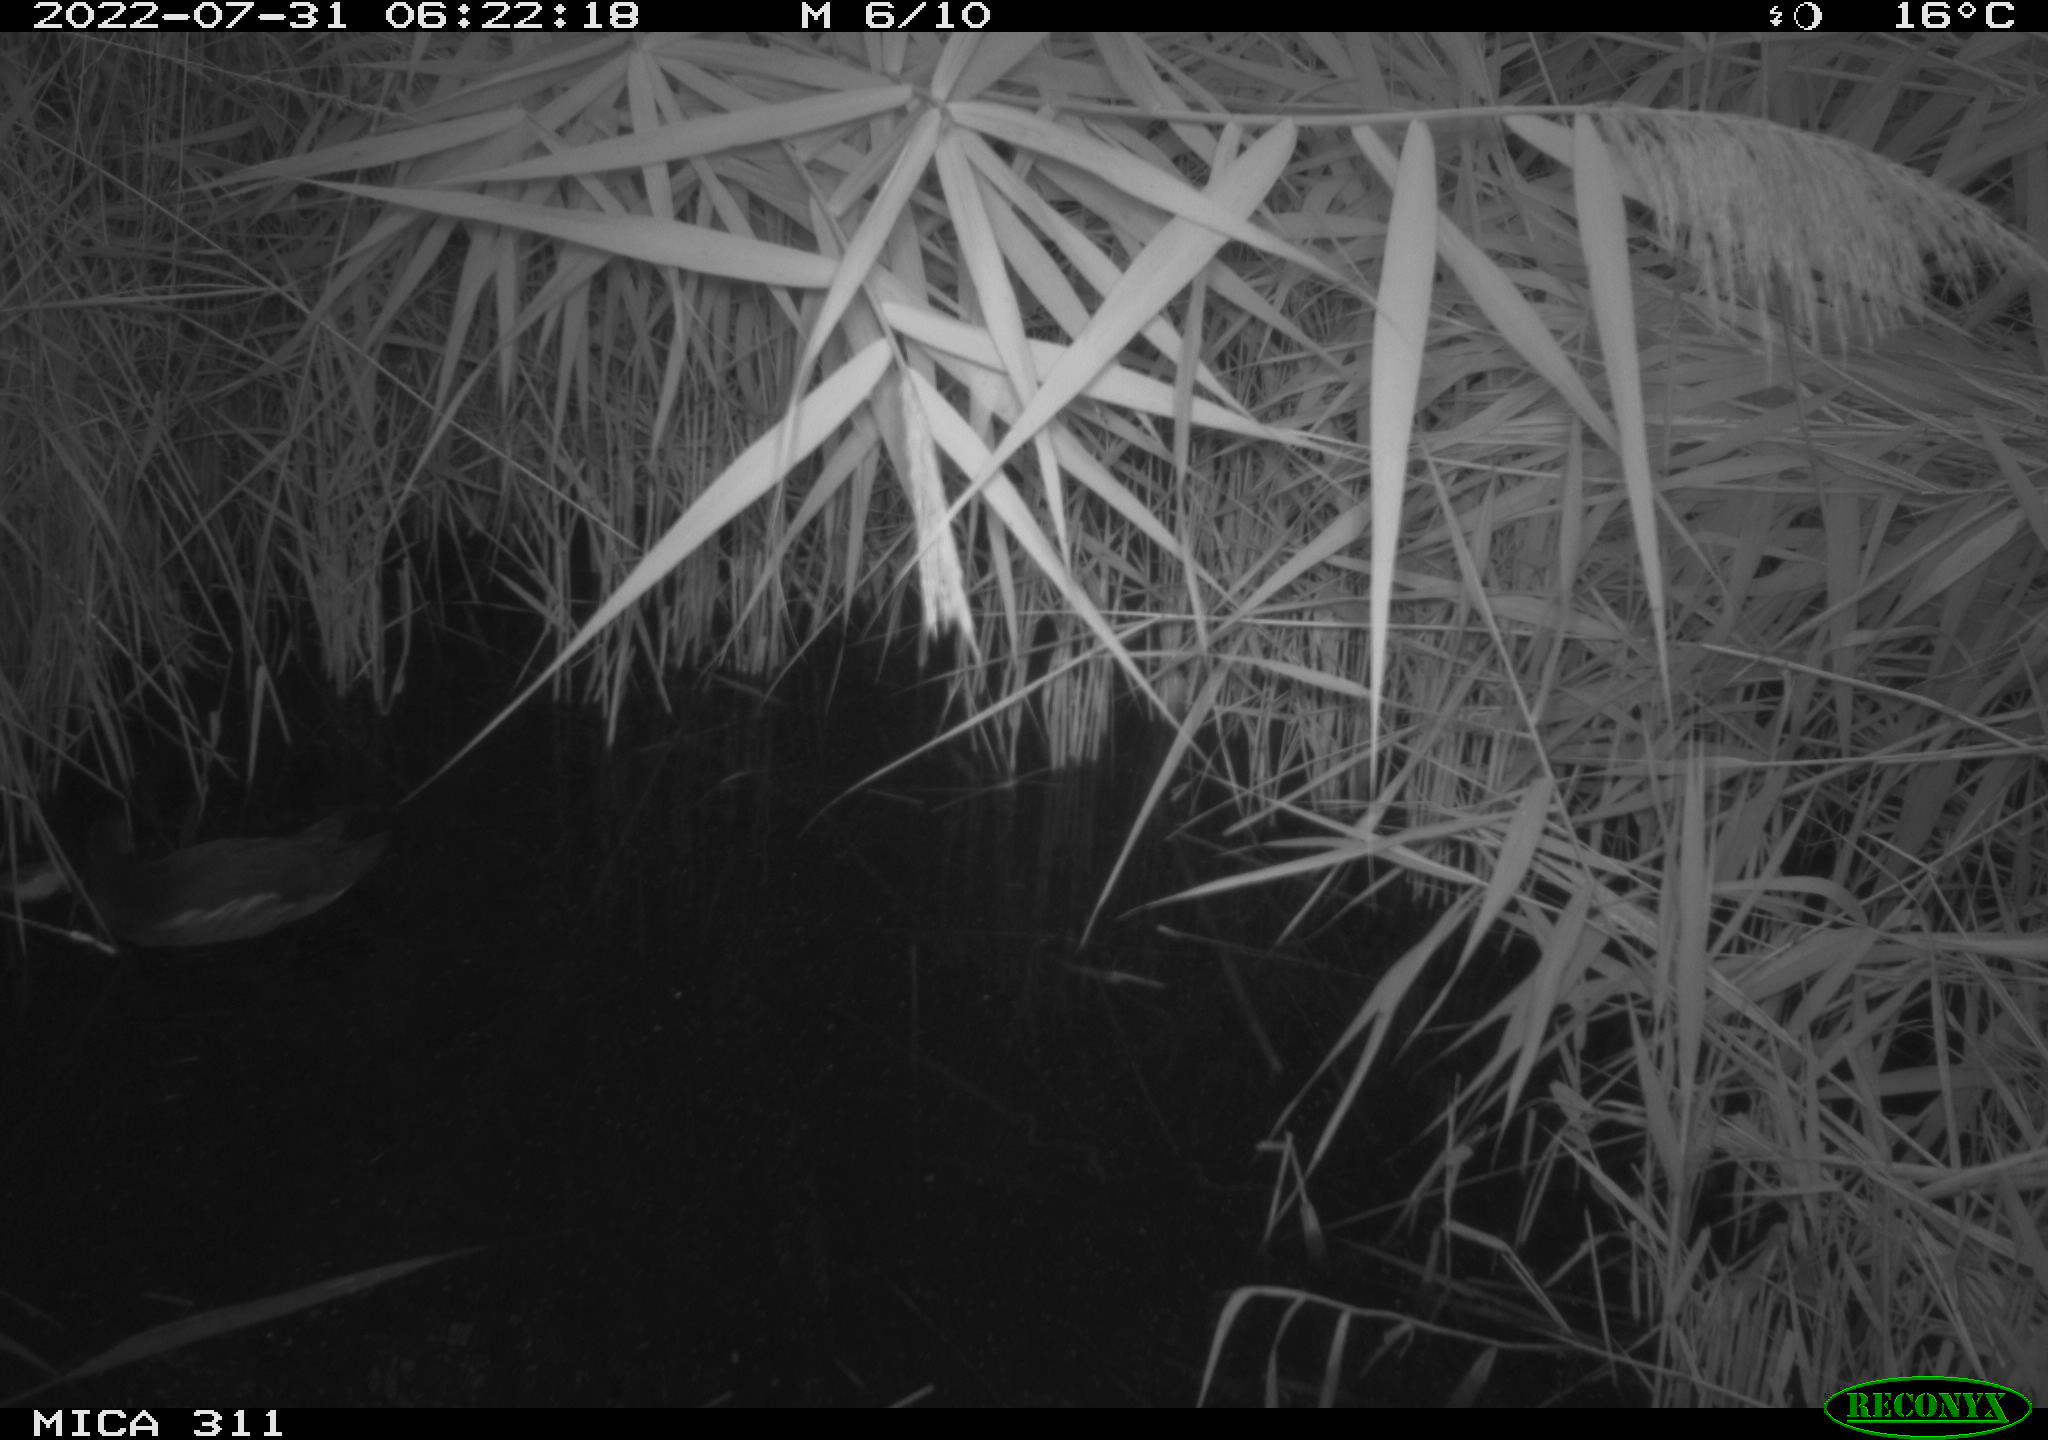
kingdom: Animalia
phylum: Chordata
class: Aves
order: Anseriformes
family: Anatidae
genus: Anas
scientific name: Anas platyrhynchos
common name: Mallard
